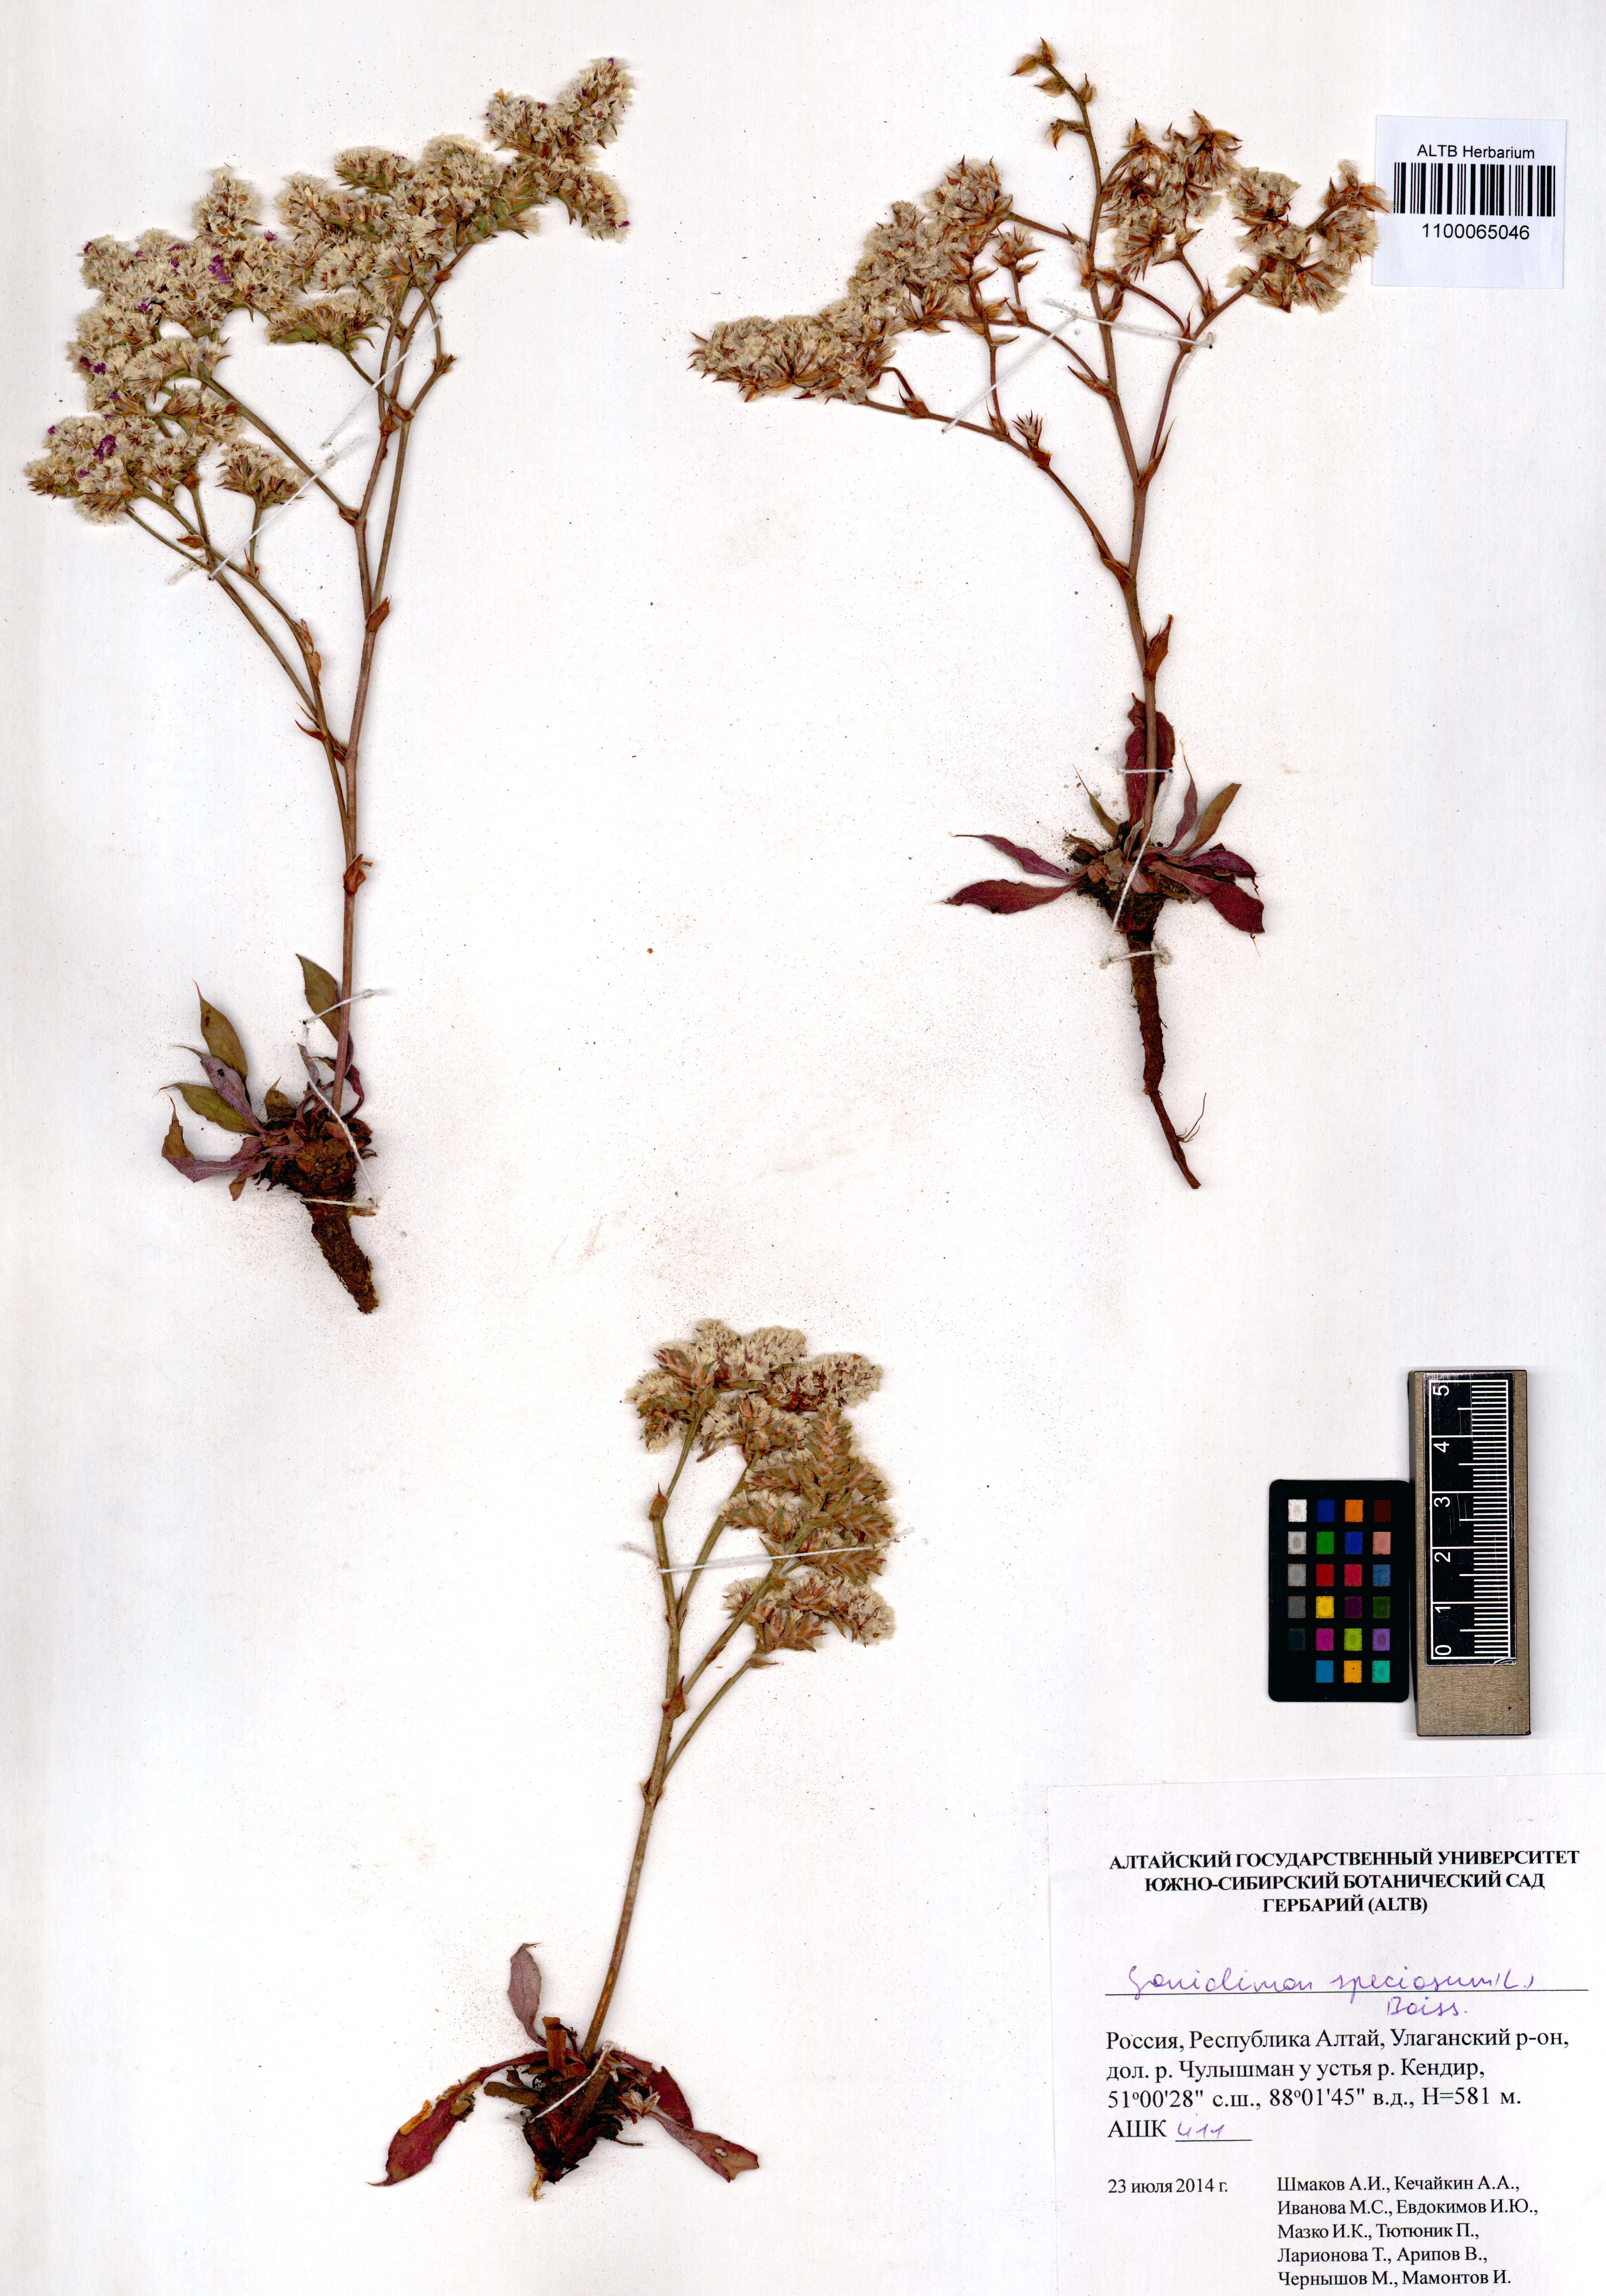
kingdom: Plantae
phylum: Tracheophyta
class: Magnoliopsida
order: Caryophyllales
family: Plumbaginaceae
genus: Goniolimon
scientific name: Goniolimon speciosum
